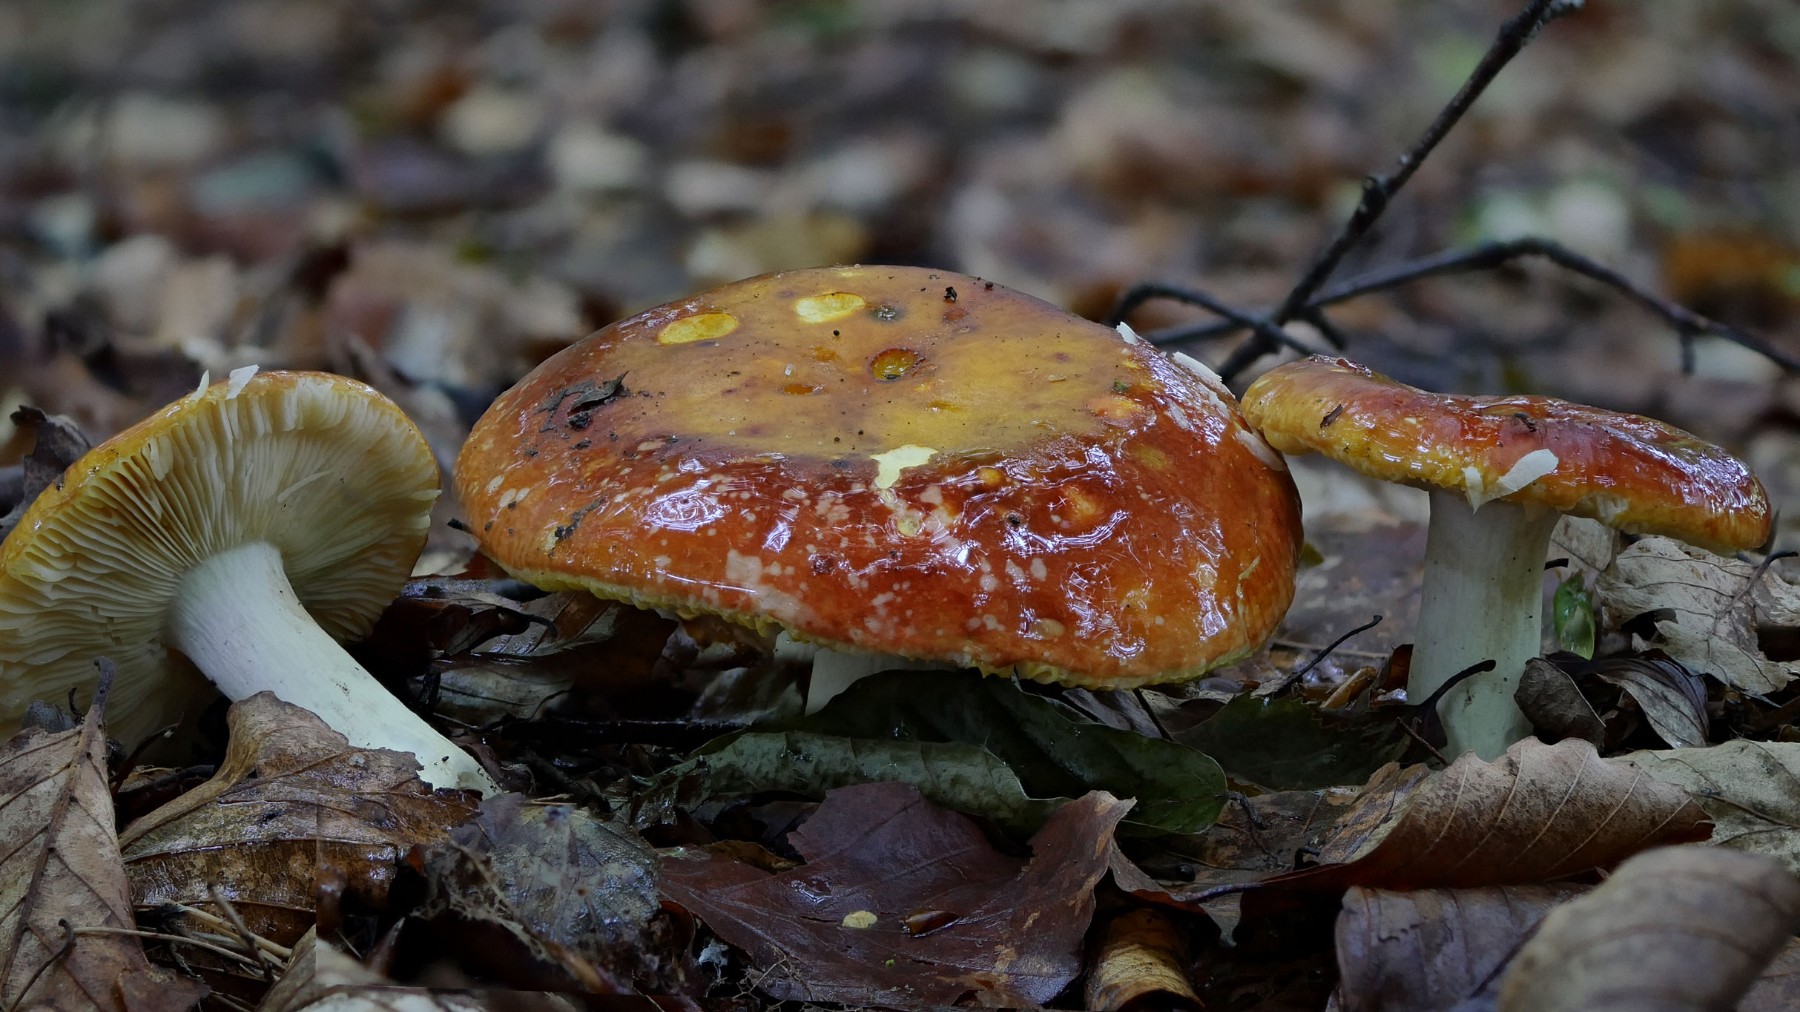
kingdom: Fungi
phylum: Basidiomycota
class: Agaricomycetes
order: Russulales
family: Russulaceae
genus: Russula
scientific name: Russula aurea
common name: gylden skørhat
